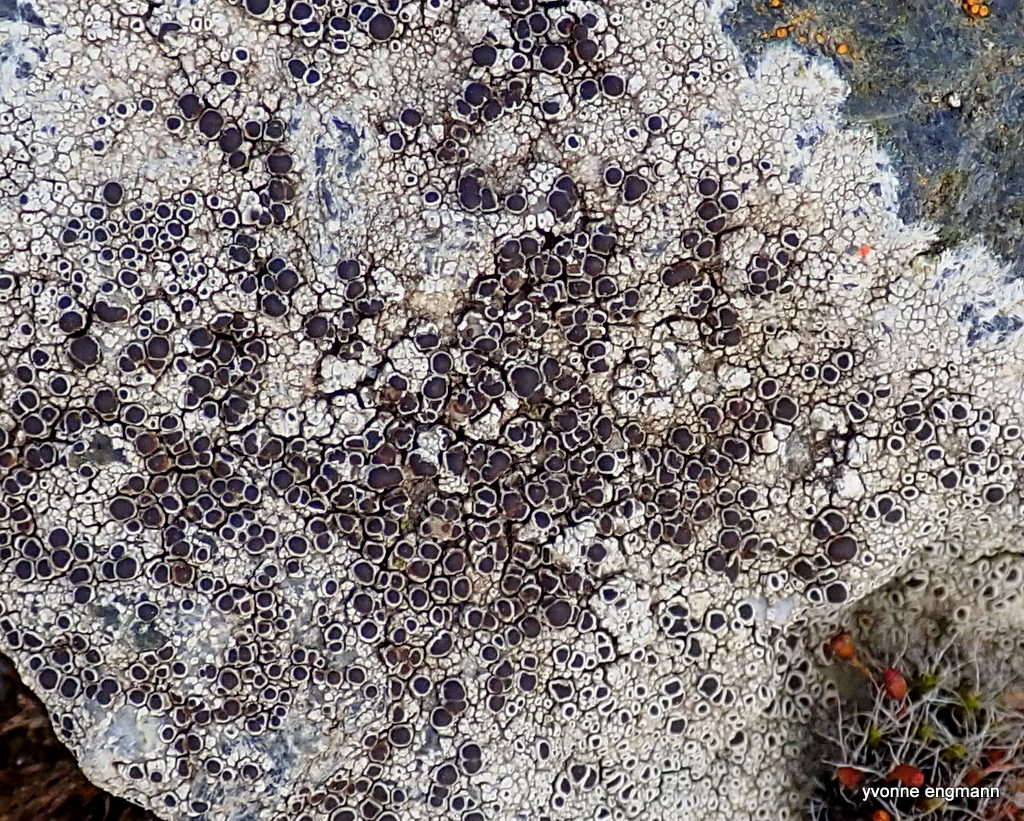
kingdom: Fungi
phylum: Ascomycota
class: Lecanoromycetes
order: Lecanorales
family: Lecanoraceae
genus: Lecanora
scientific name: Lecanora campestris
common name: mur-kantskivelav
